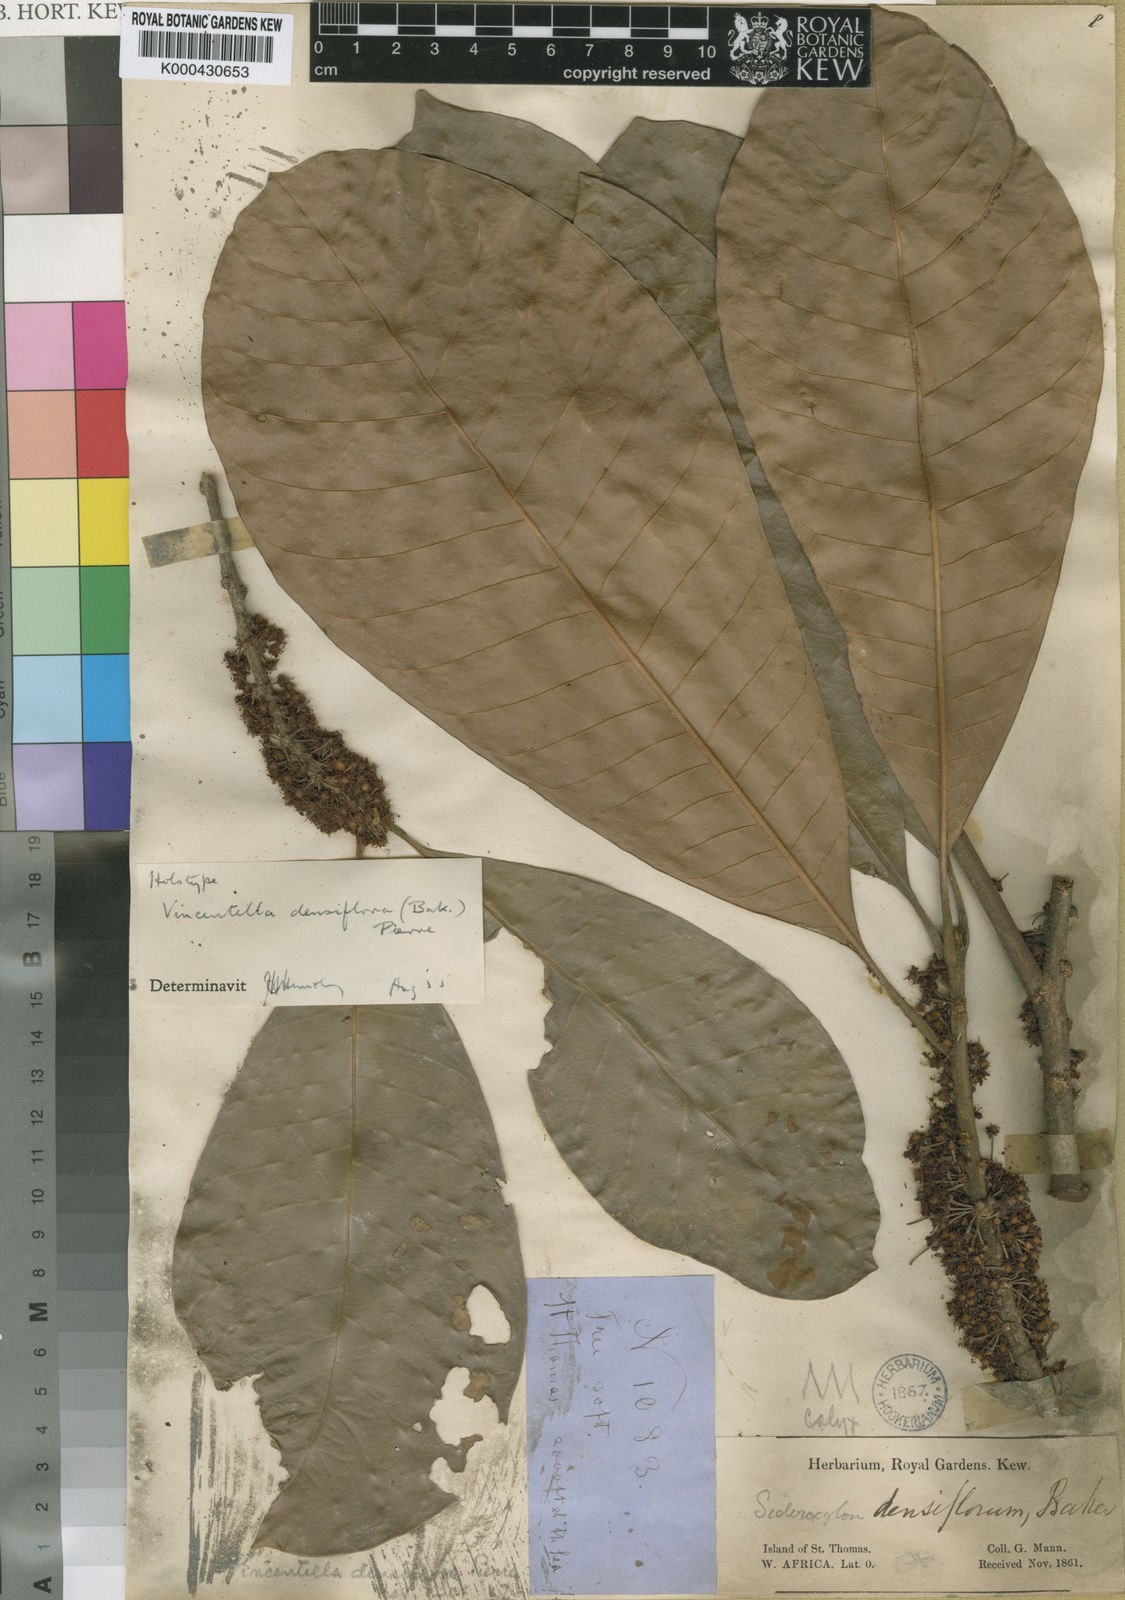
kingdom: Plantae
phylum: Tracheophyta
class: Magnoliopsida
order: Ericales
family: Sapotaceae
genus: Synsepalum
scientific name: Synsepalum revolutum
